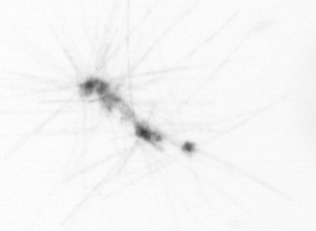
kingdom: Chromista
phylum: Ochrophyta
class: Bacillariophyceae
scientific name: Bacillariophyceae
